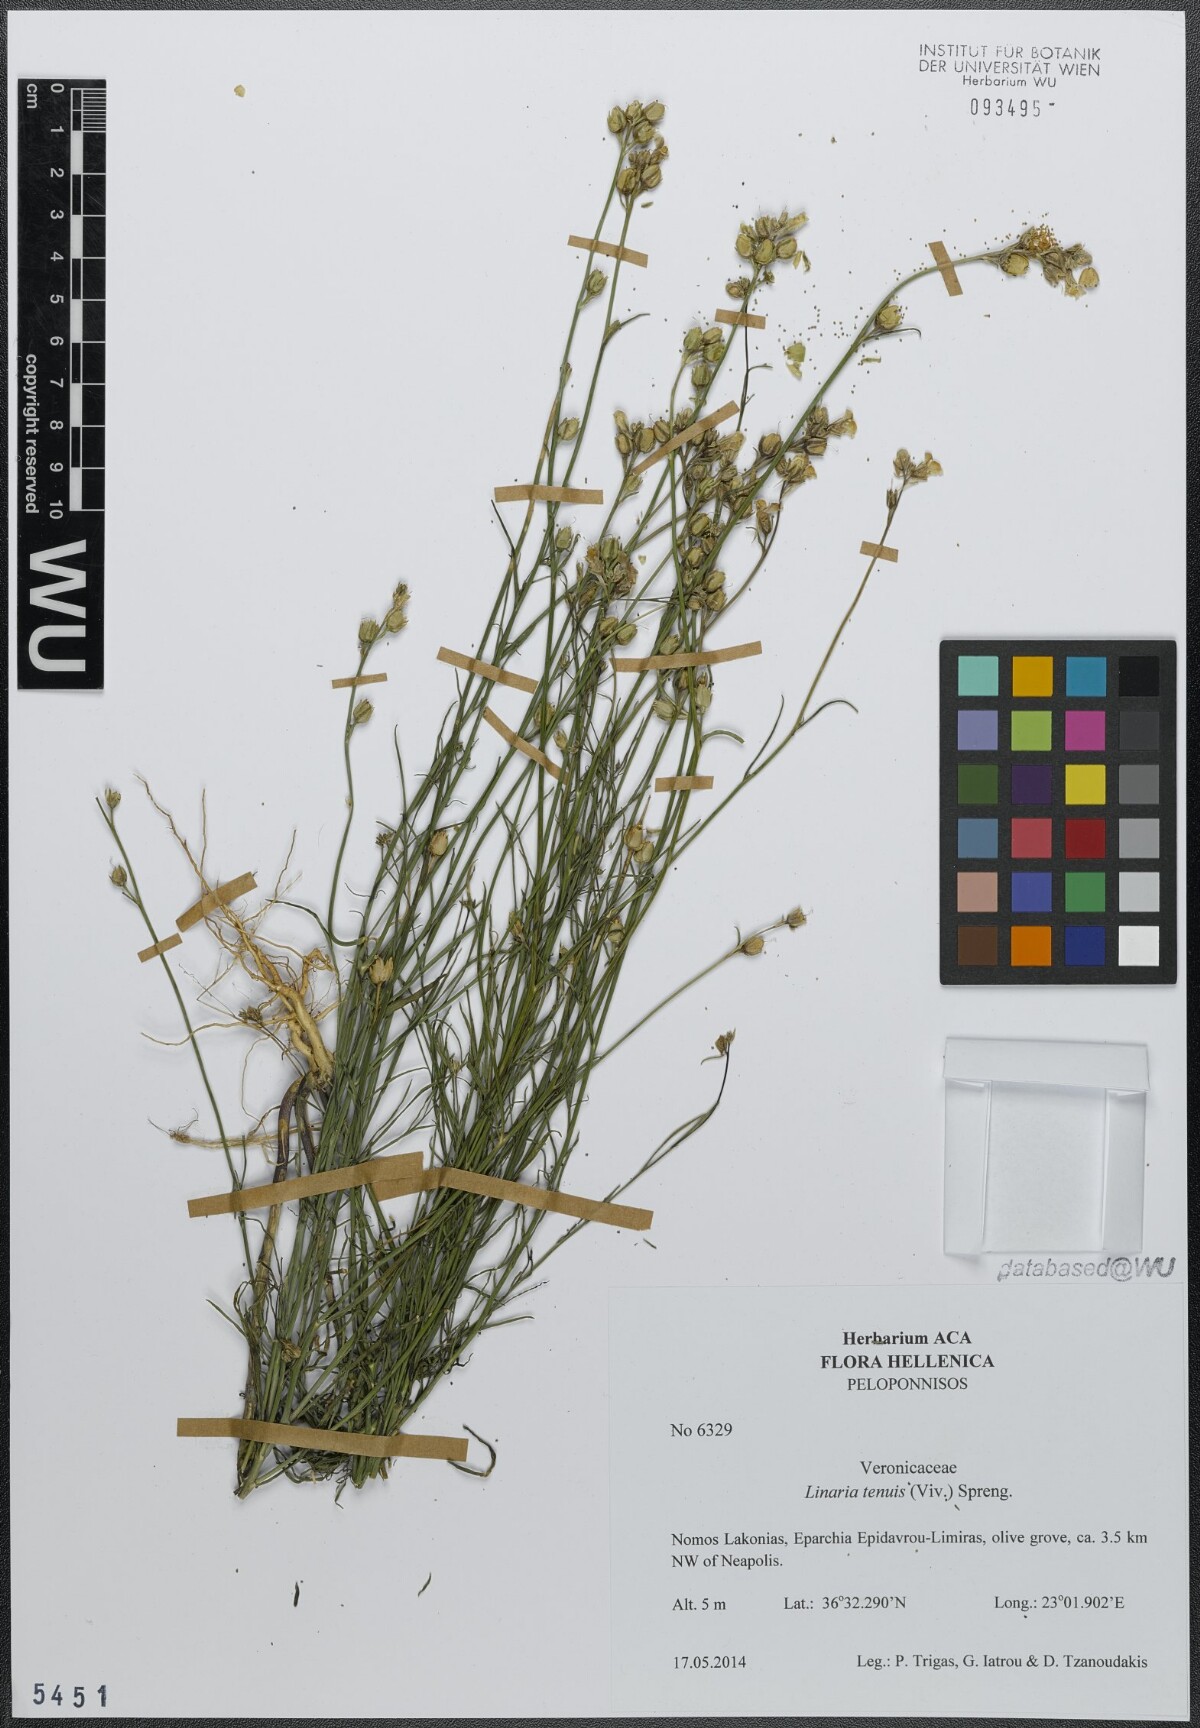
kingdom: Plantae
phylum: Tracheophyta
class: Magnoliopsida
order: Lamiales
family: Plantaginaceae
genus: Linaria
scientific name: Linaria tenuis
